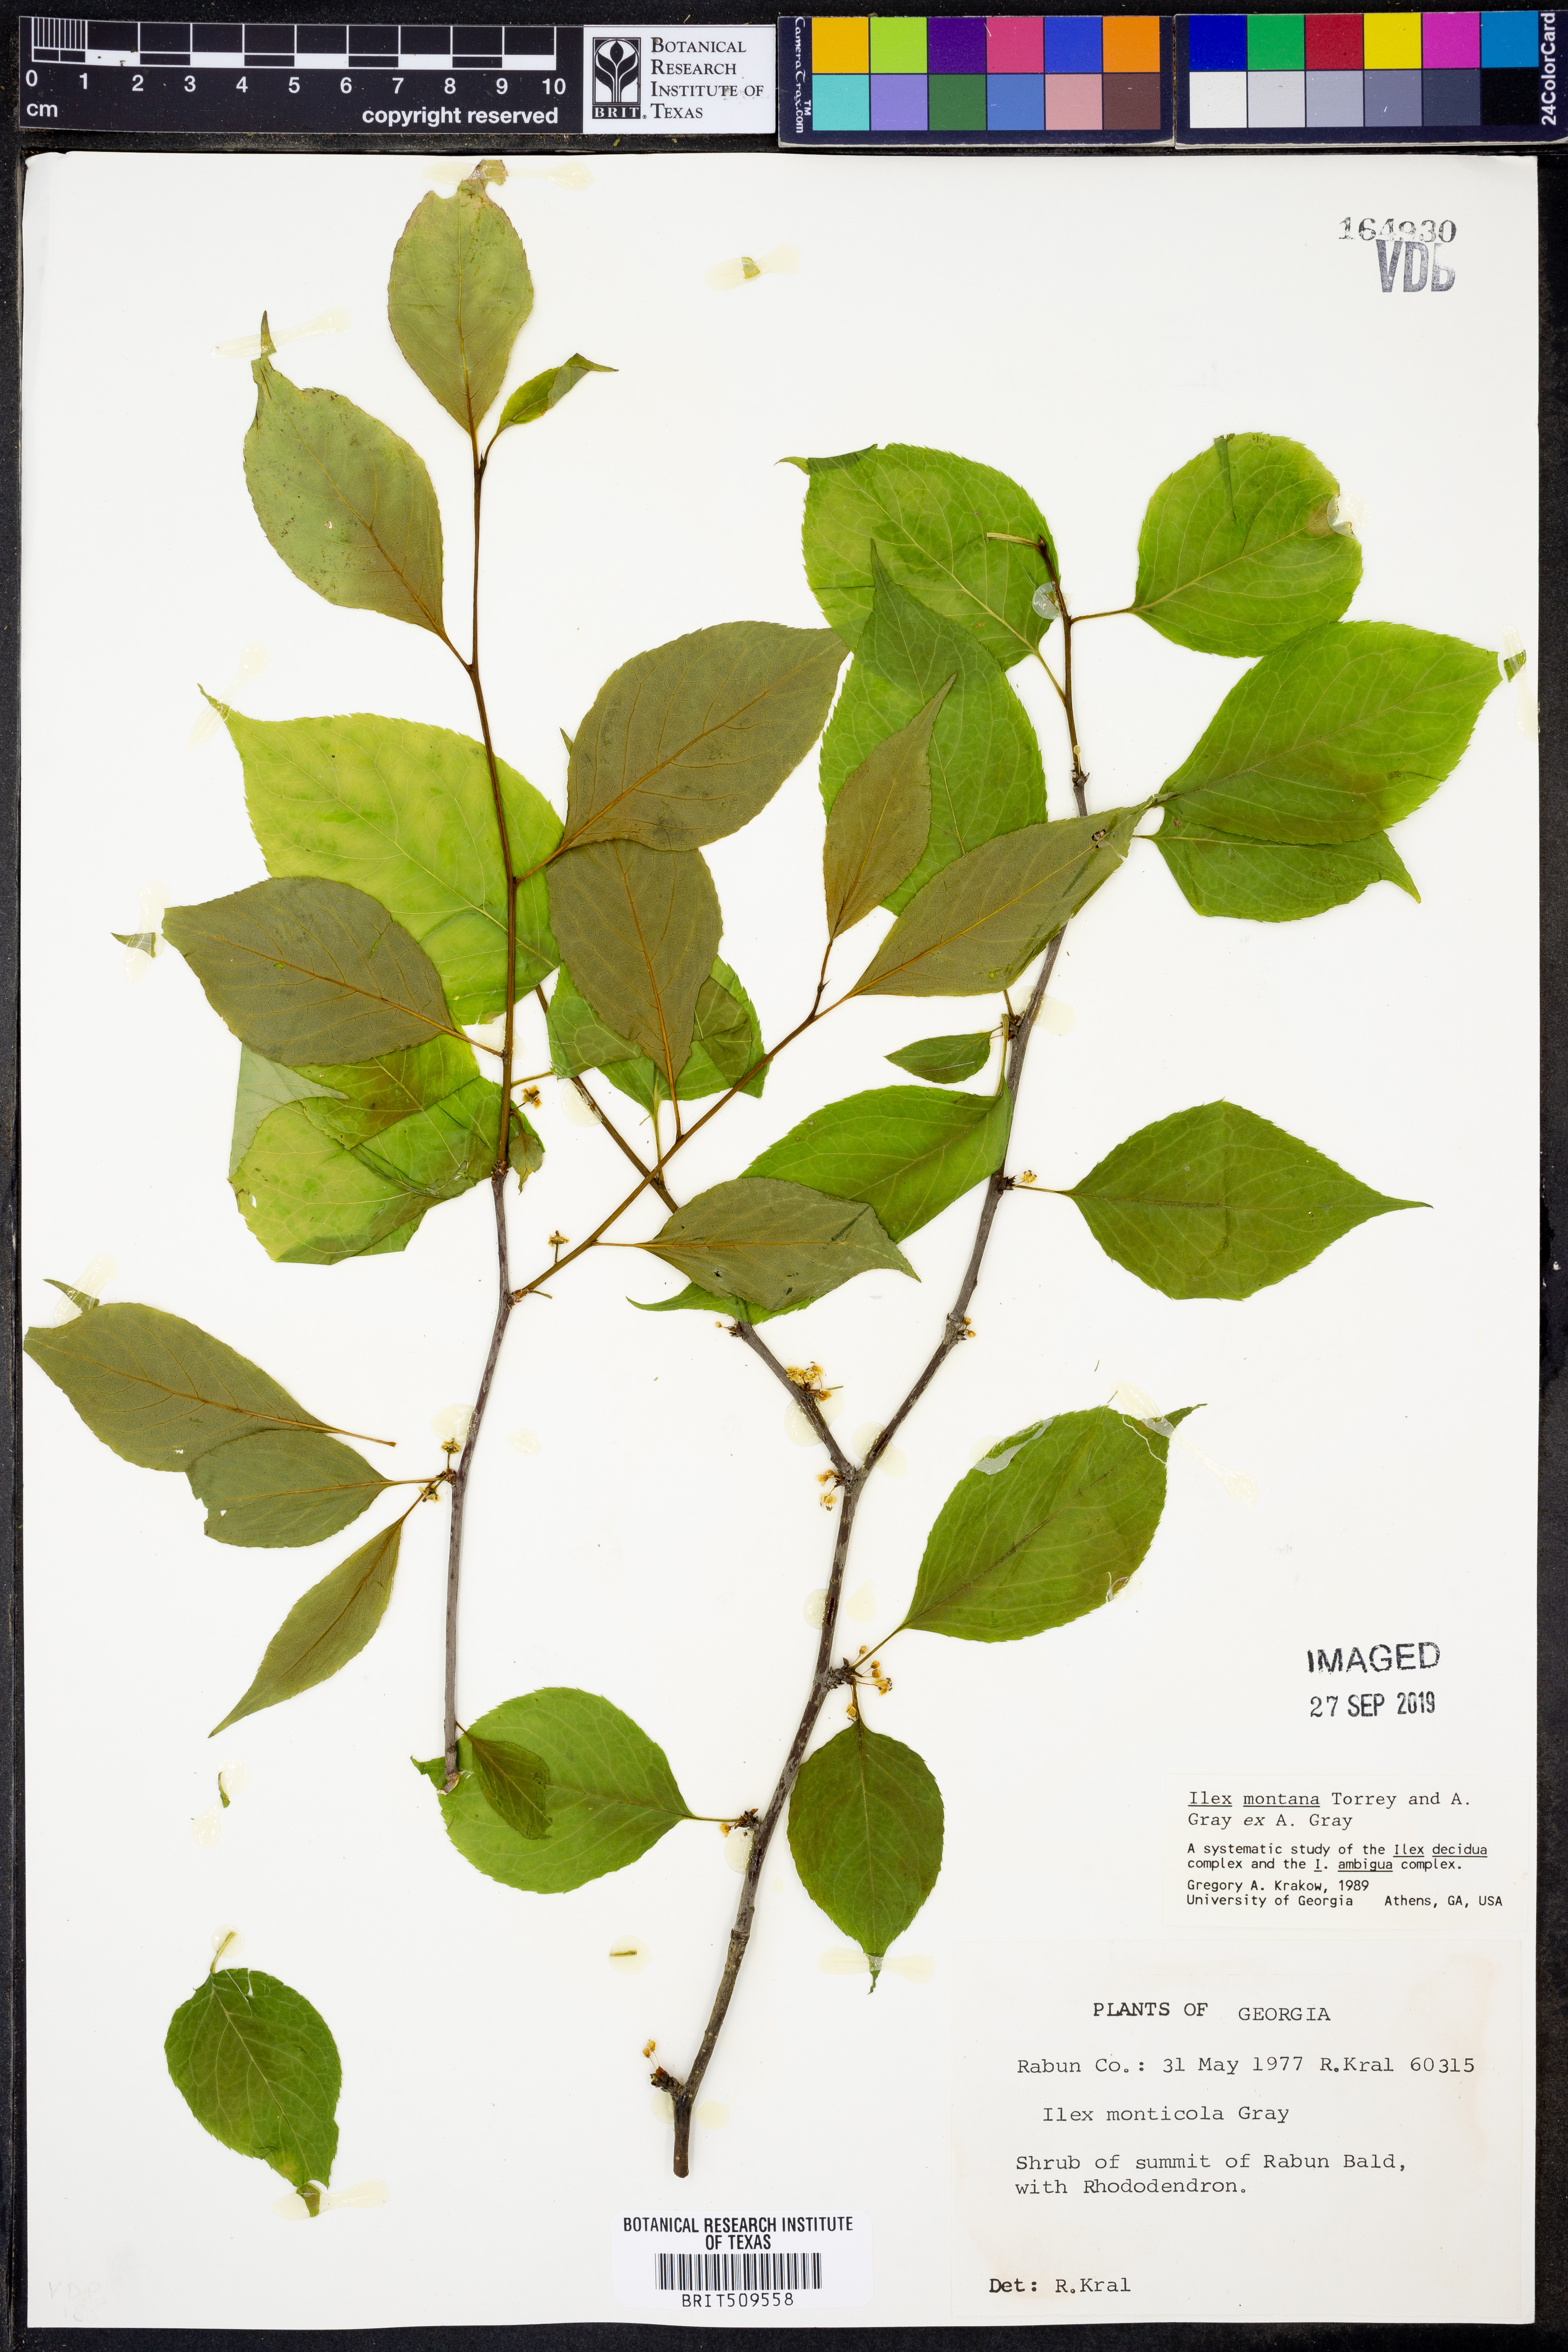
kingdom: Plantae
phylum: Tracheophyta
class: Magnoliopsida
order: Aquifoliales
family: Aquifoliaceae
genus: Ilex
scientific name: Ilex montana
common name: Mountain winterberry
